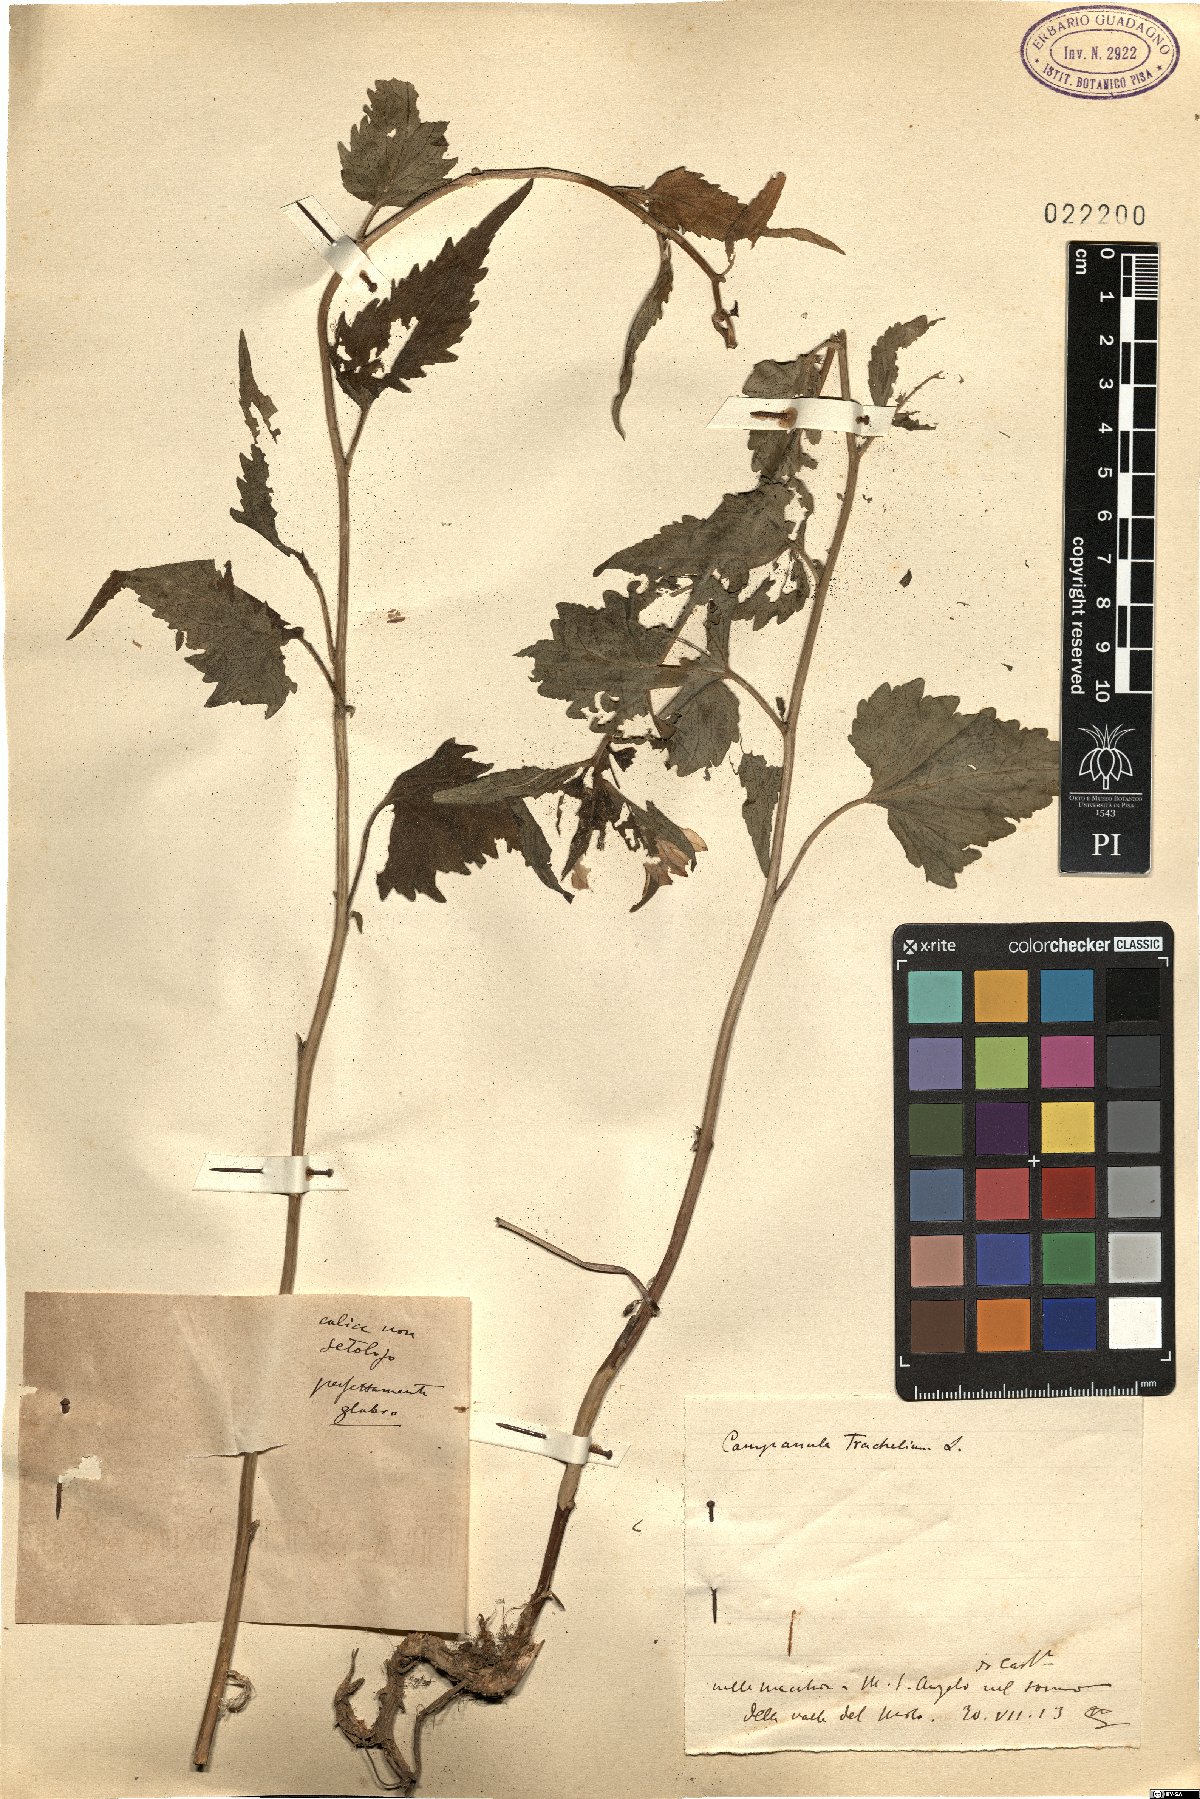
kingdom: Plantae
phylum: Tracheophyta
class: Magnoliopsida
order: Asterales
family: Campanulaceae
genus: Campanula
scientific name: Campanula trachelium
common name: Nettle-leaved bellflower
